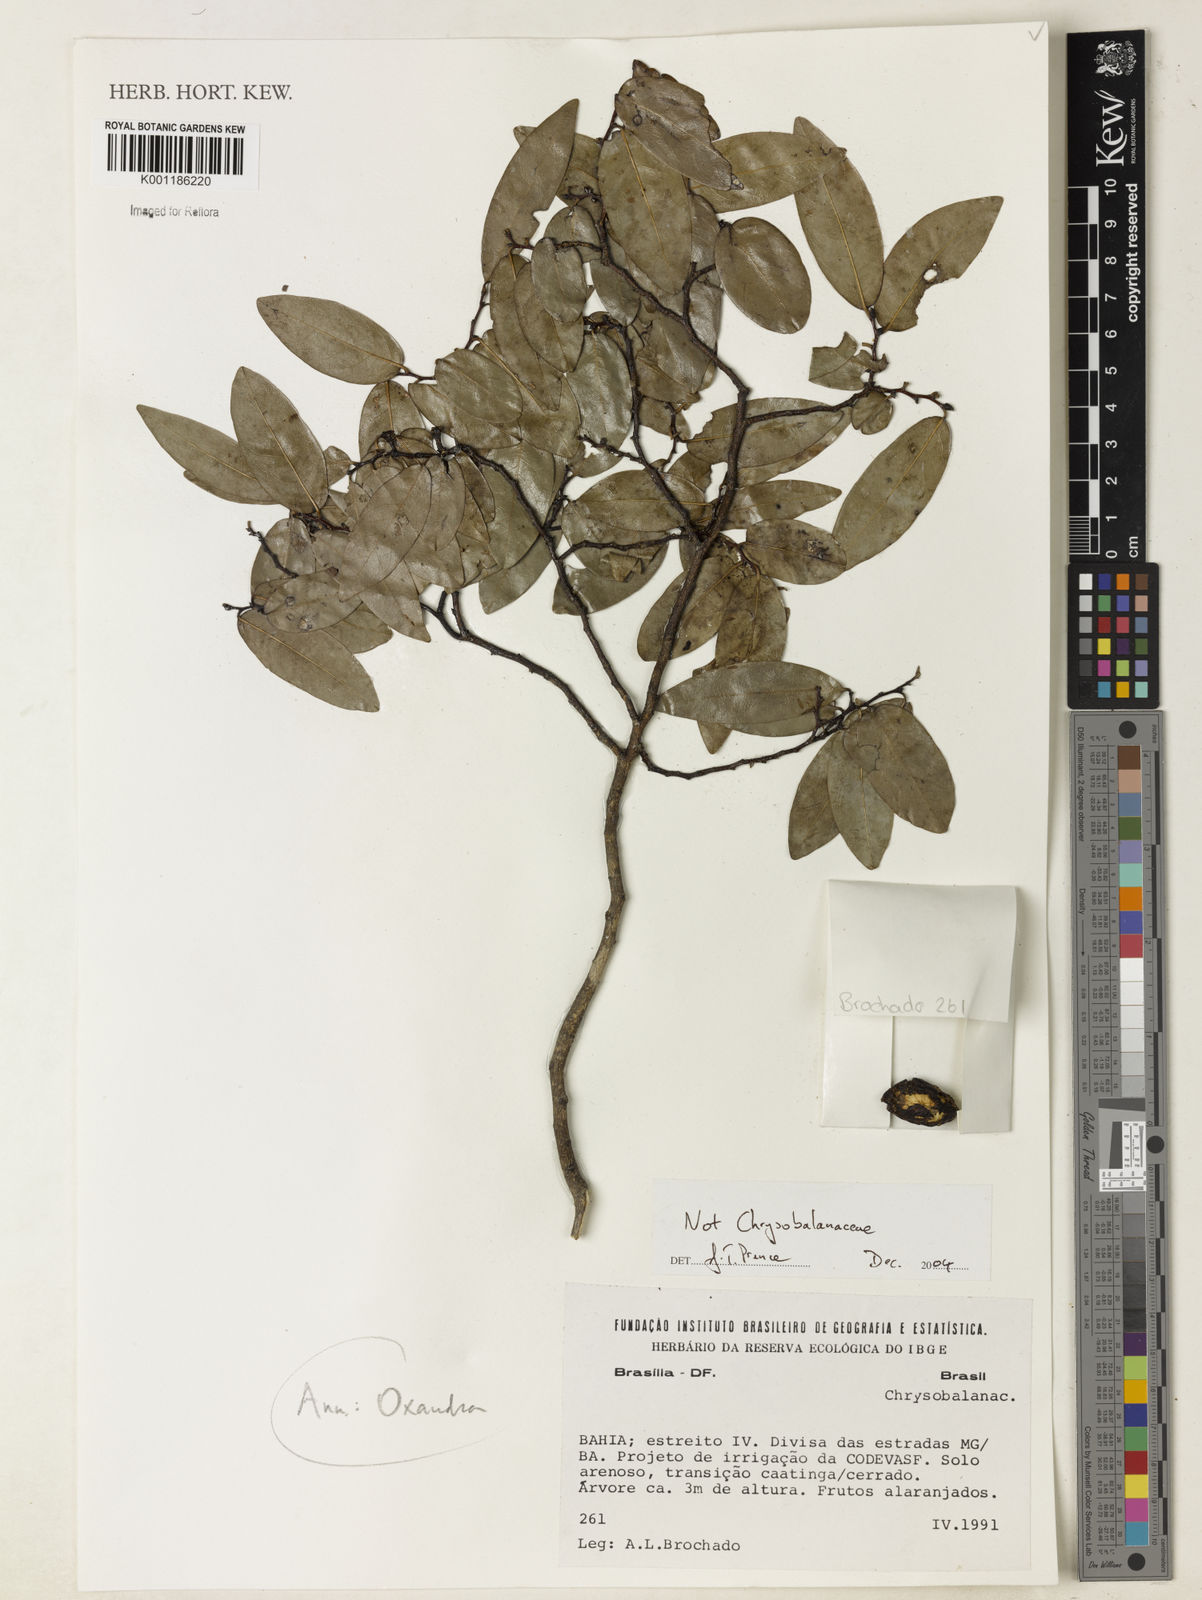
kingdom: Plantae
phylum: Tracheophyta
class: Magnoliopsida
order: Magnoliales
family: Annonaceae
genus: Oxandra
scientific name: Oxandra
